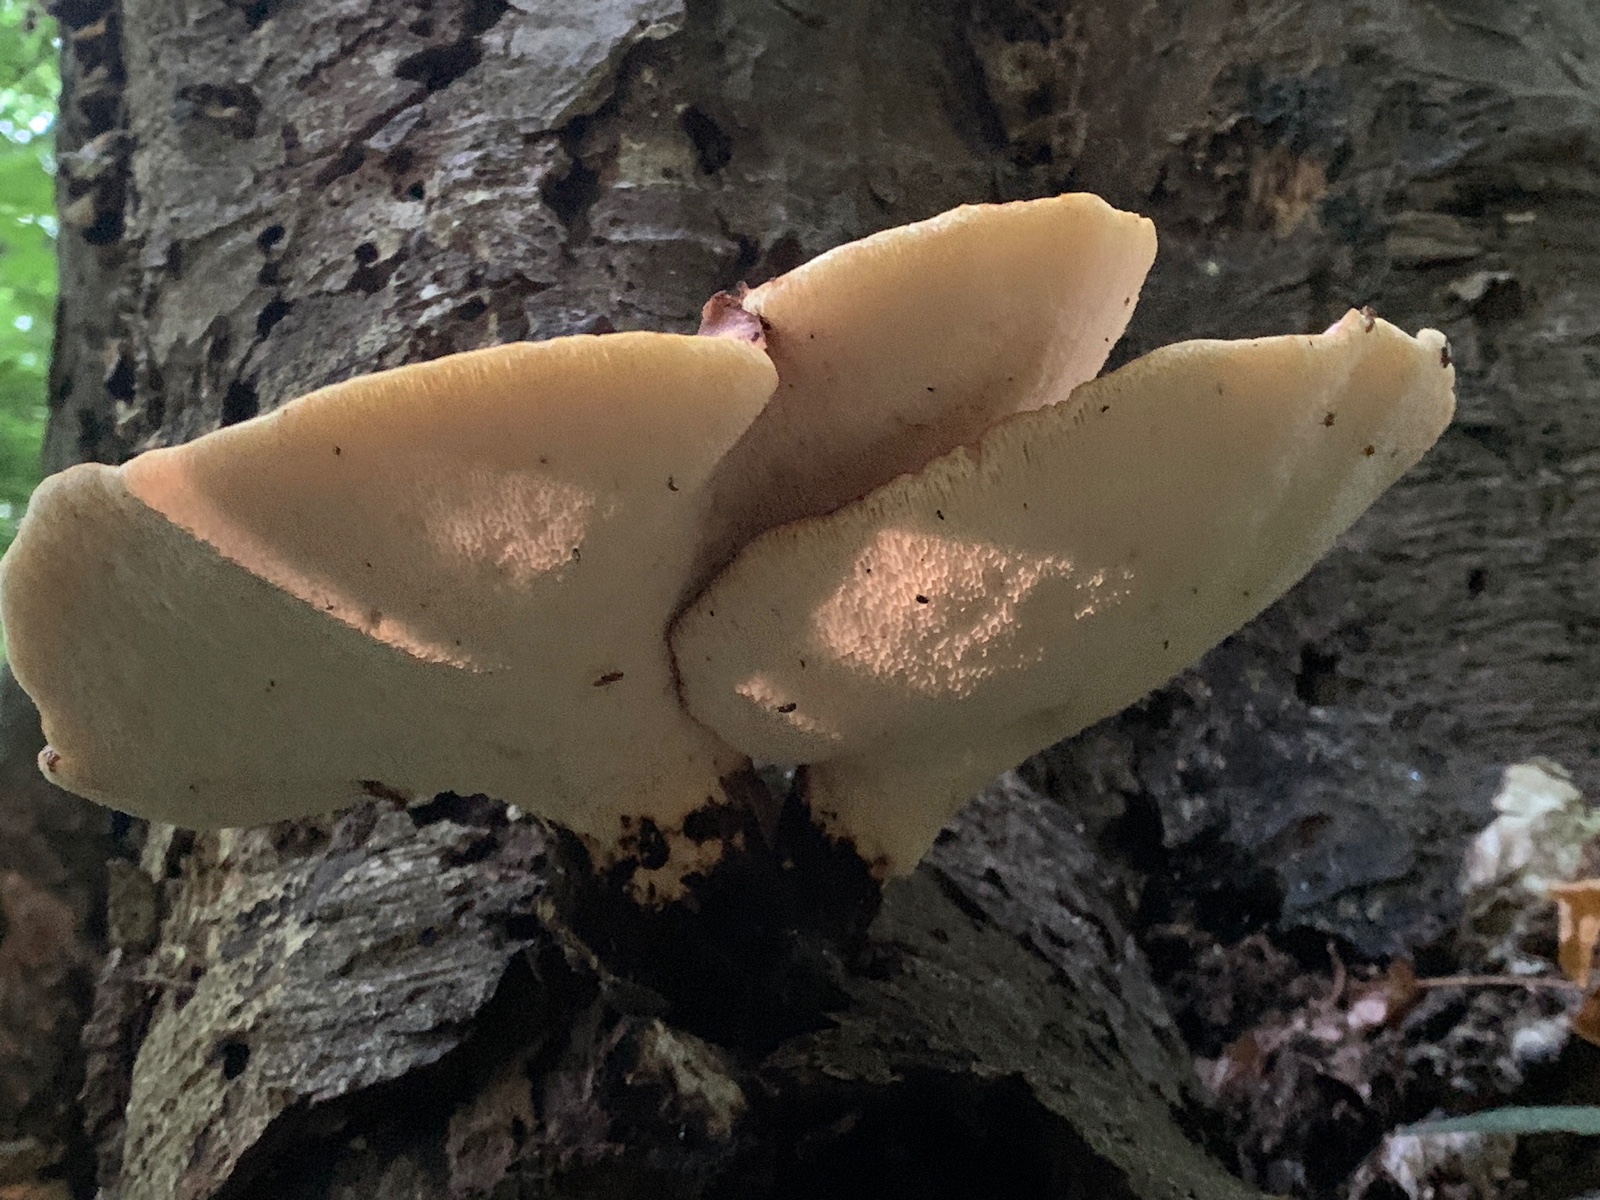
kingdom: Fungi
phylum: Basidiomycota
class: Agaricomycetes
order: Polyporales
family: Polyporaceae
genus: Cerioporus
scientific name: Cerioporus squamosus
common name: skællet stilkporesvamp
